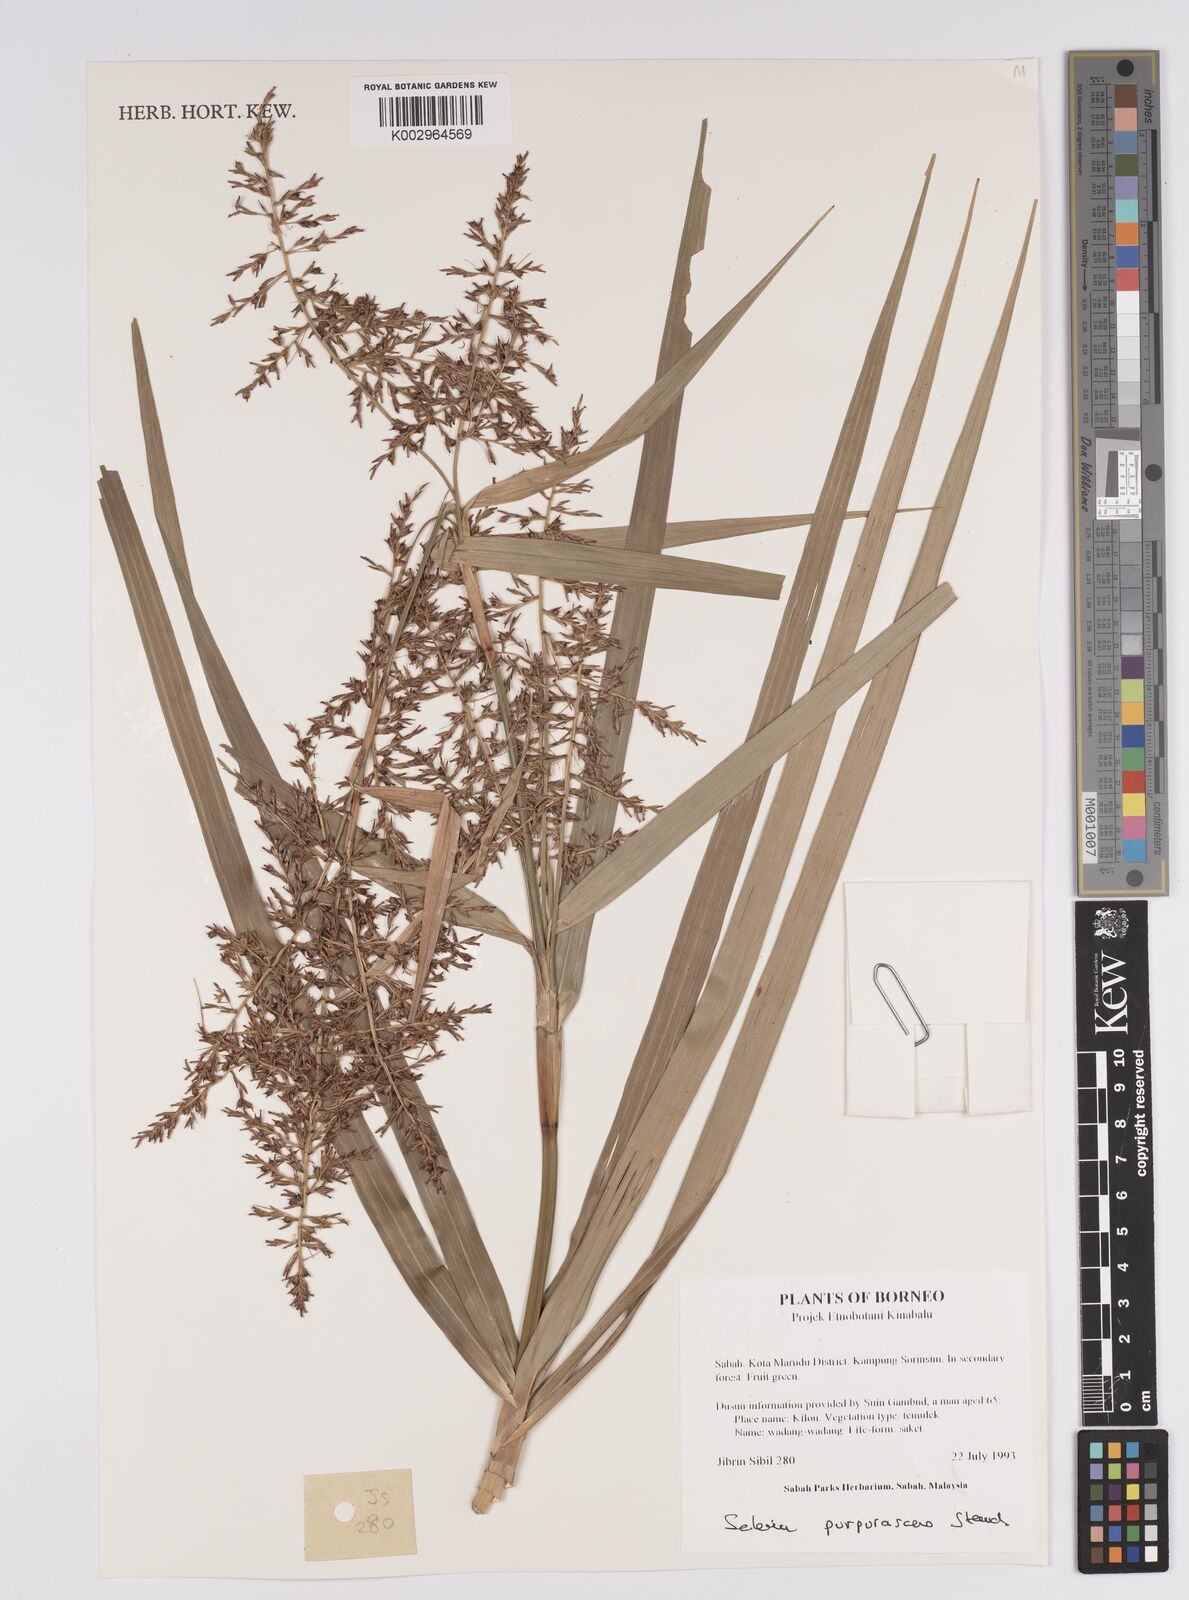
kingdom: Plantae
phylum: Tracheophyta
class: Liliopsida
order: Poales
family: Cyperaceae
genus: Scleria
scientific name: Scleria purpurascens
